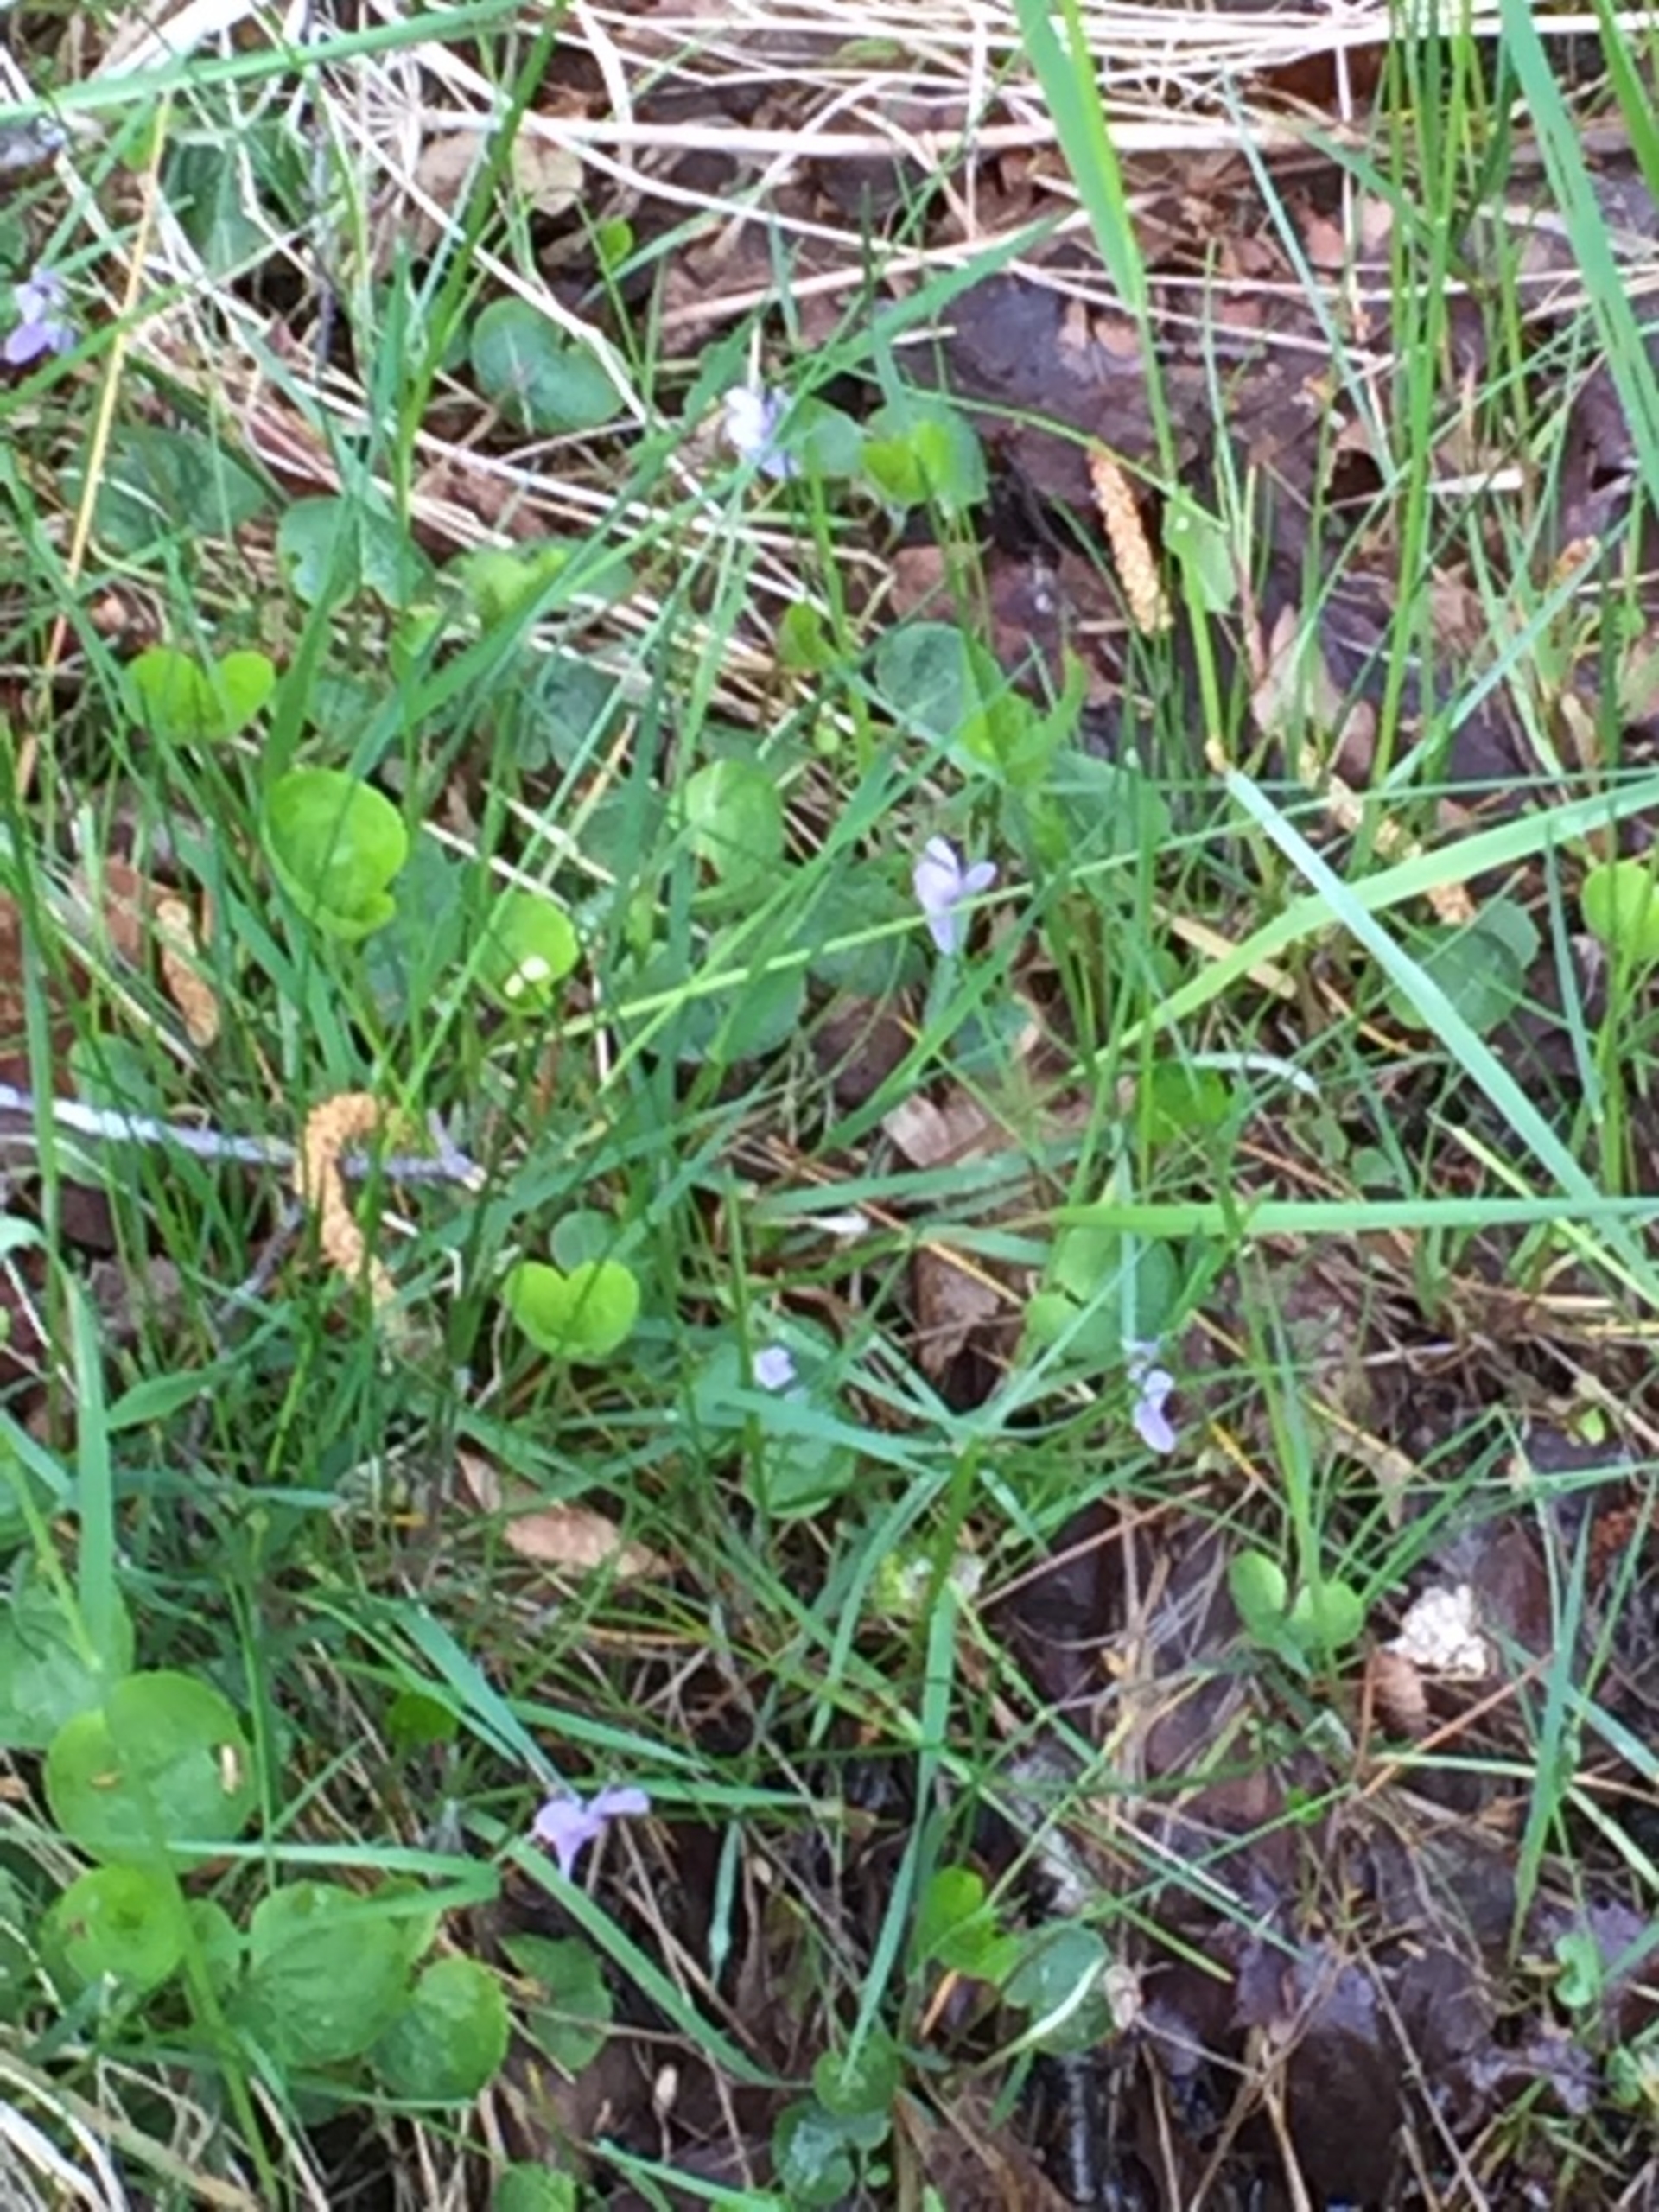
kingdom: Plantae
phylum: Tracheophyta
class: Magnoliopsida
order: Malpighiales
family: Violaceae
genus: Viola
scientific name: Viola palustris
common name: Eng-viol
